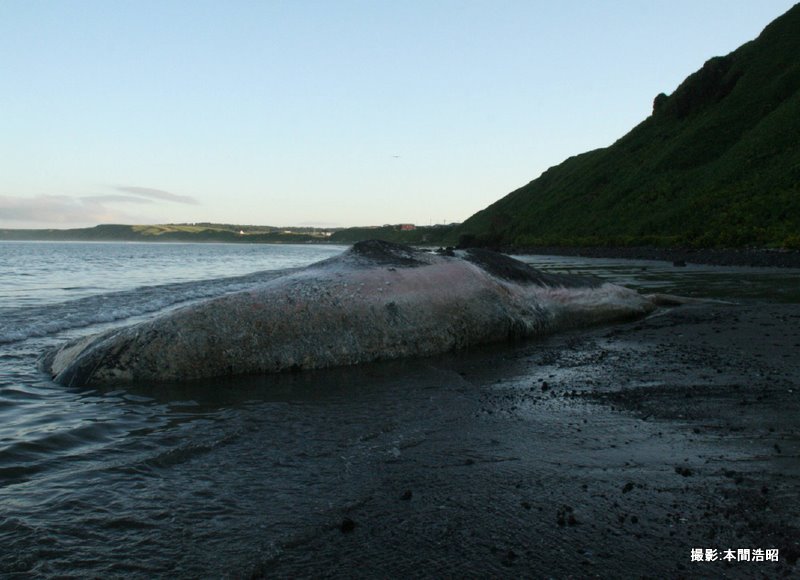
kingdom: Animalia
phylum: Chordata
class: Mammalia
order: Cetacea
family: Physeteridae
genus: Physeter
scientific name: Physeter macrocephalus
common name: Sperm whale
